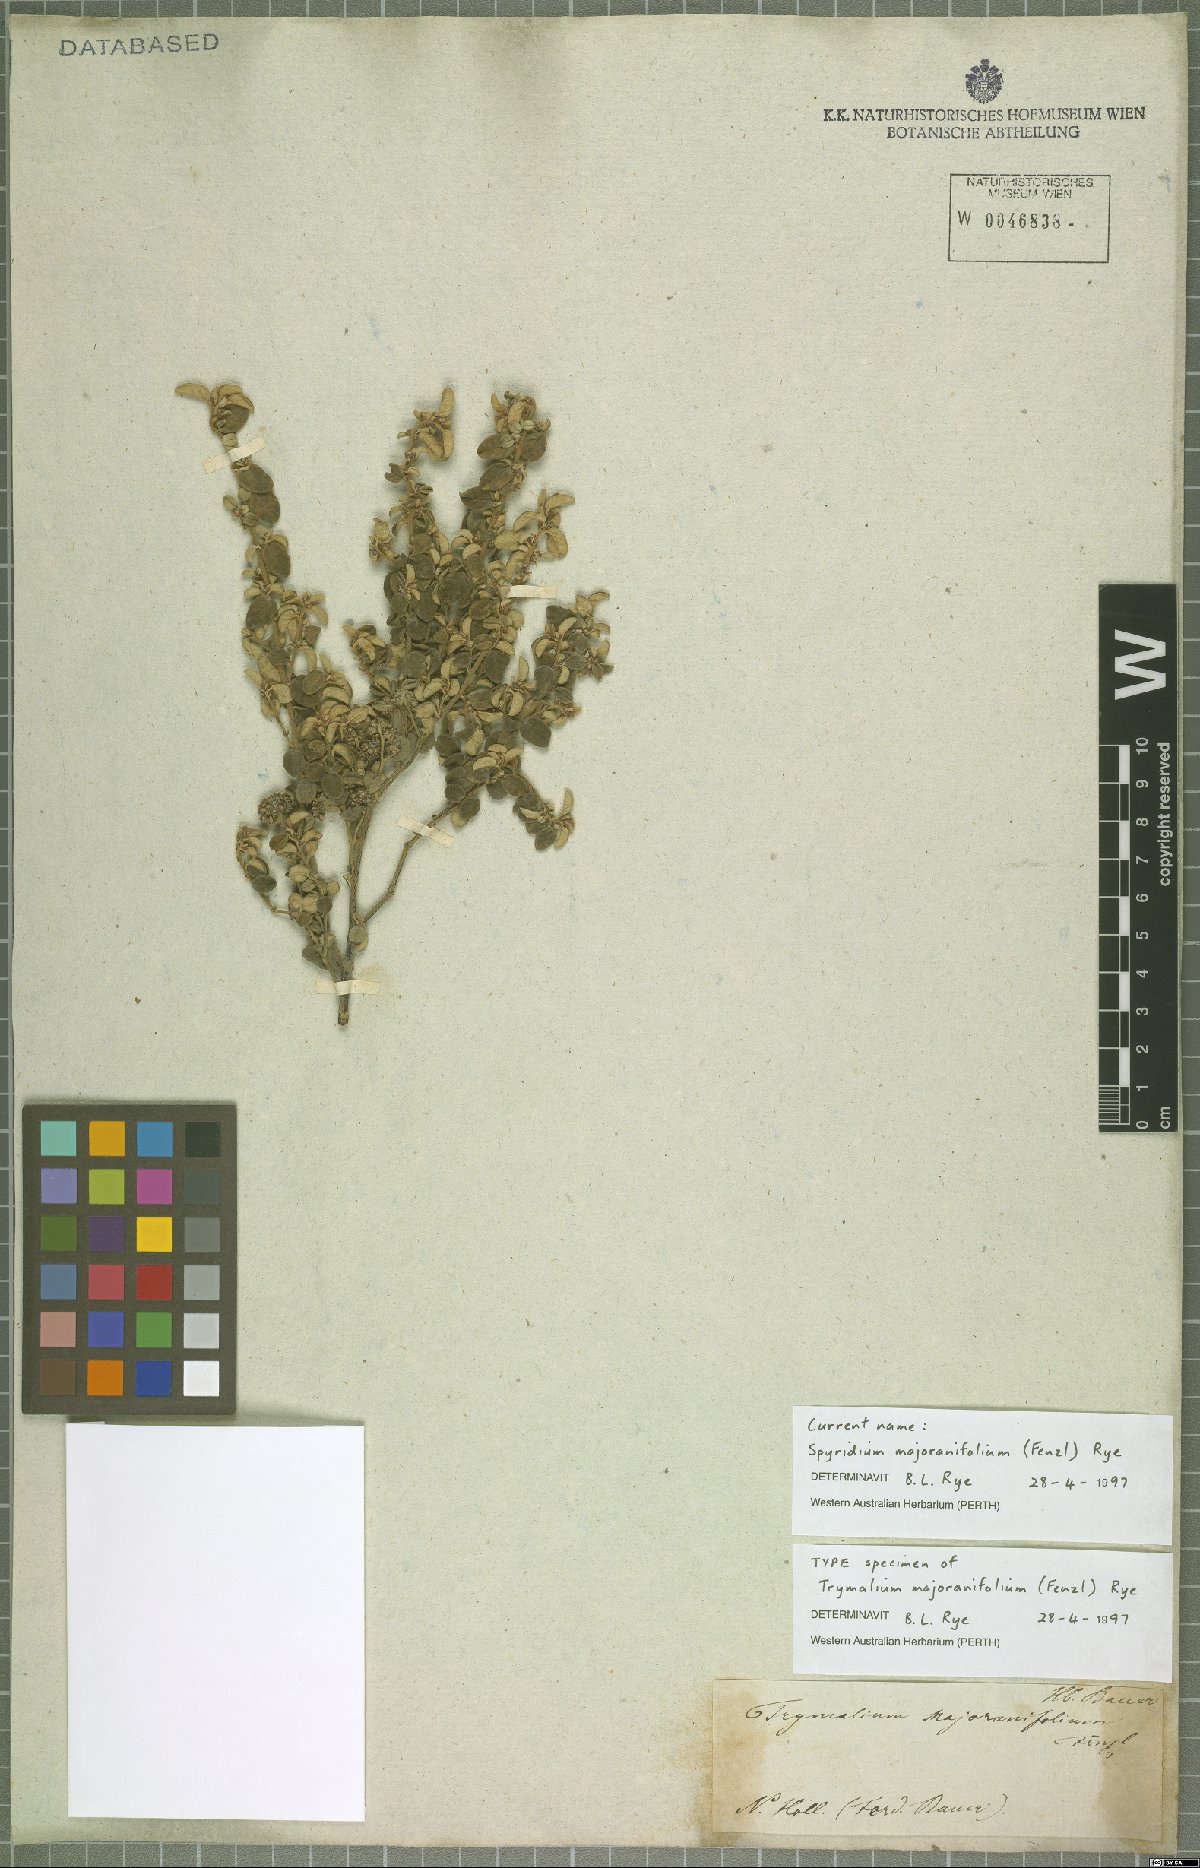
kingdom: Plantae
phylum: Tracheophyta
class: Magnoliopsida
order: Rosales
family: Rhamnaceae
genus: Spyridium
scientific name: Spyridium majoranifolium
